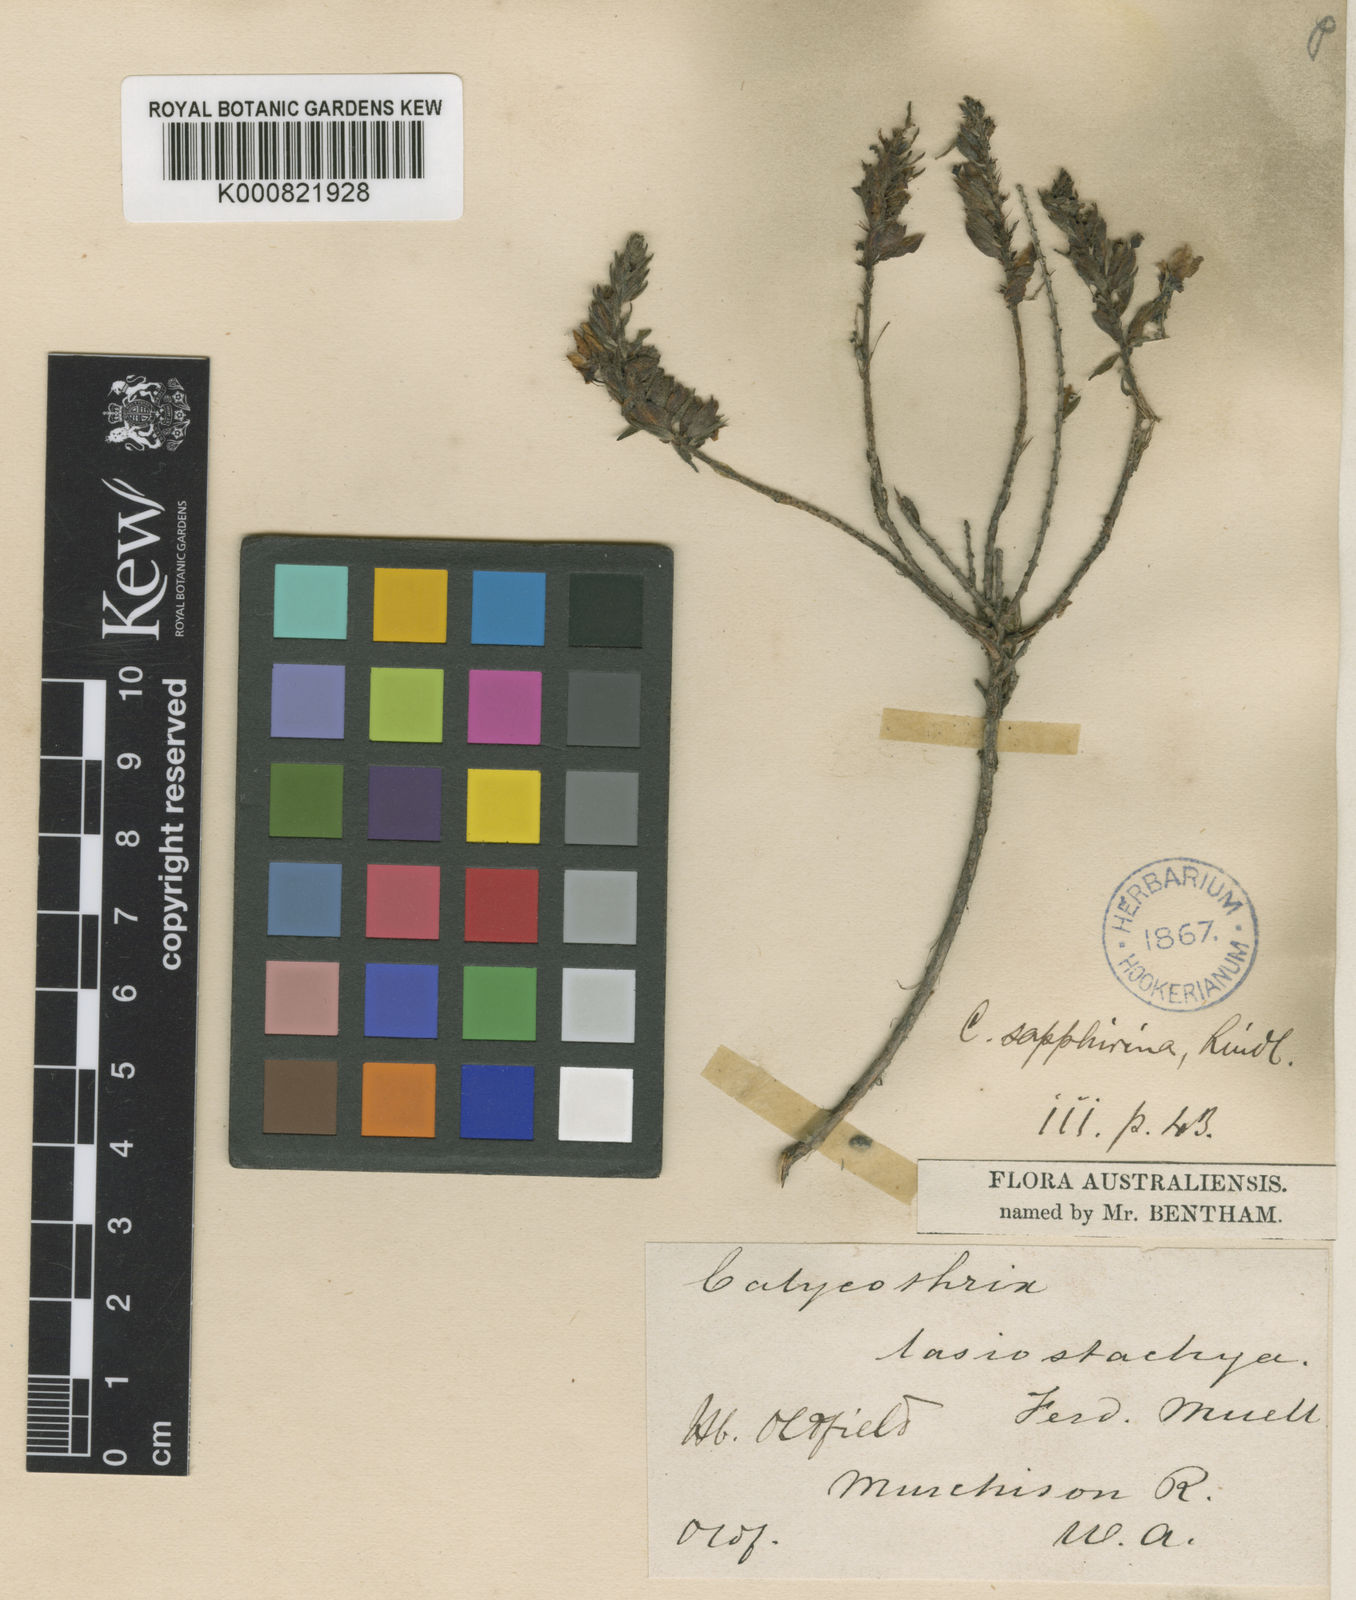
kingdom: Plantae
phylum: Tracheophyta
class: Magnoliopsida
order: Myrtales
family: Myrtaceae
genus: Calytrix
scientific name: Calytrix sapphirina
